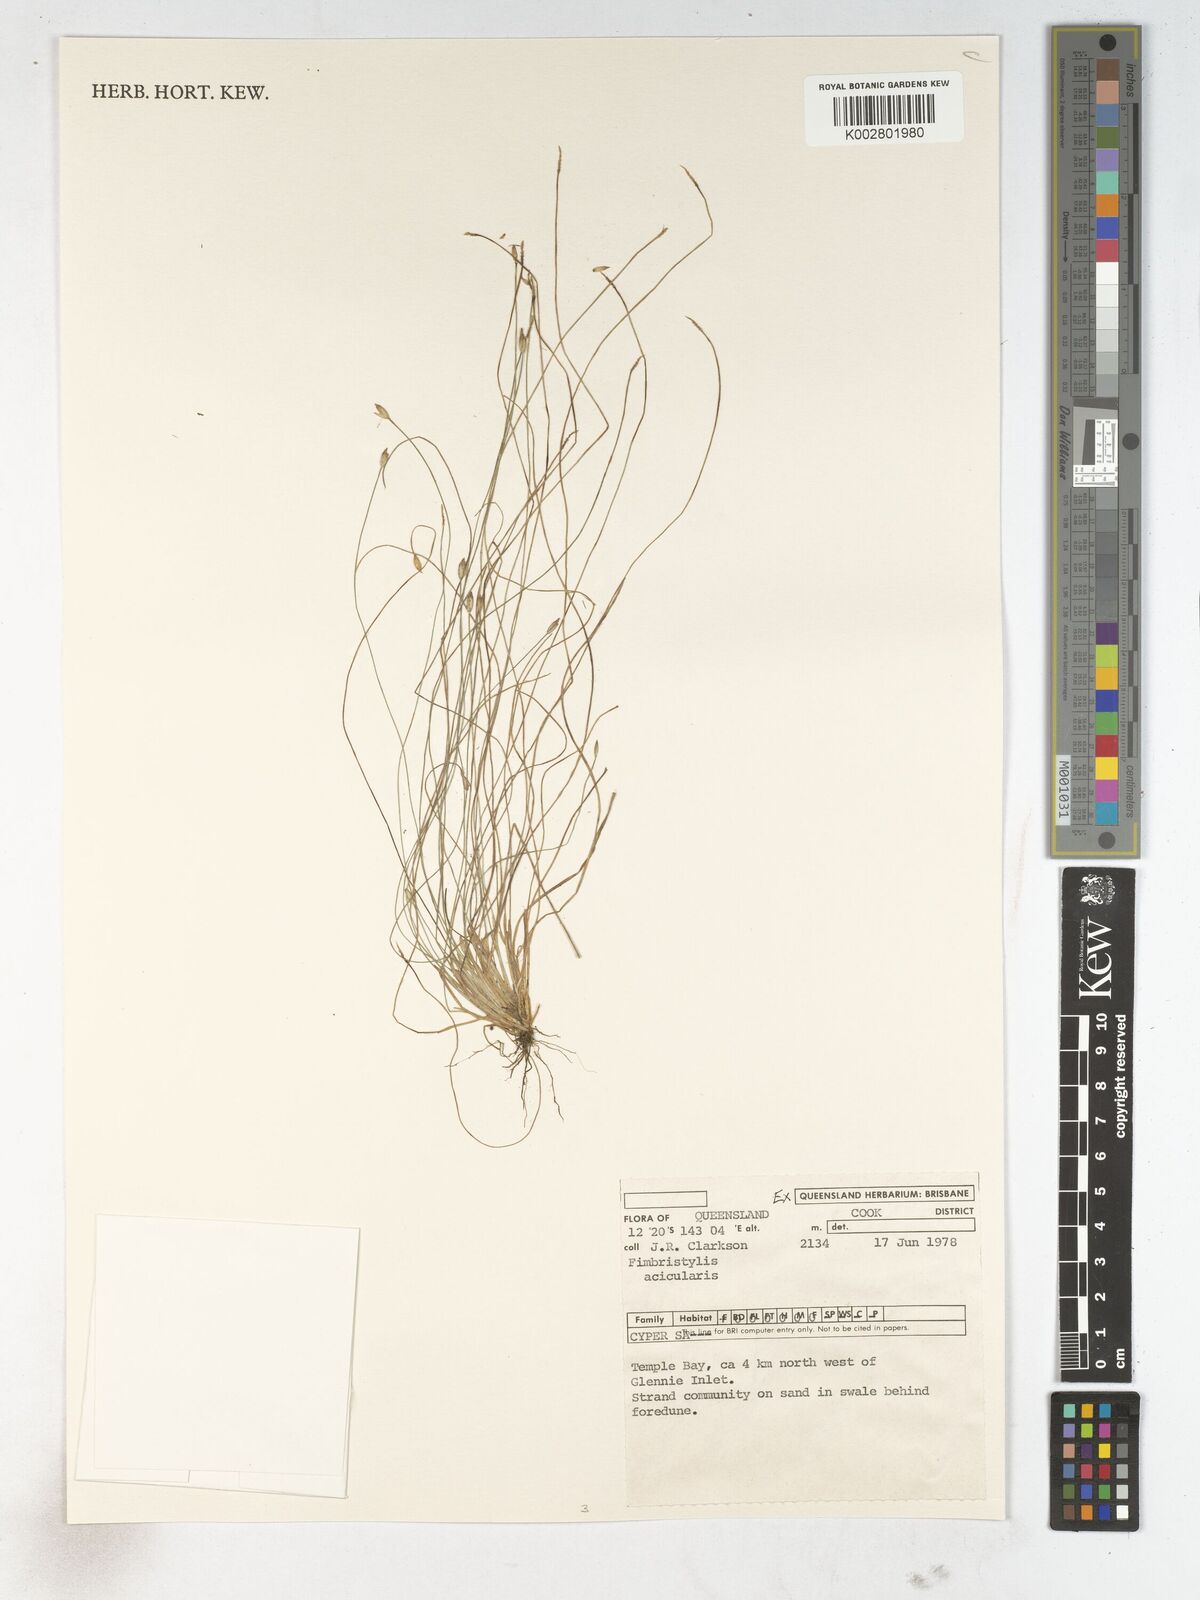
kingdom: Plantae
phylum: Tracheophyta
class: Liliopsida
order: Poales
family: Cyperaceae
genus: Fimbristylis
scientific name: Fimbristylis acicularis
